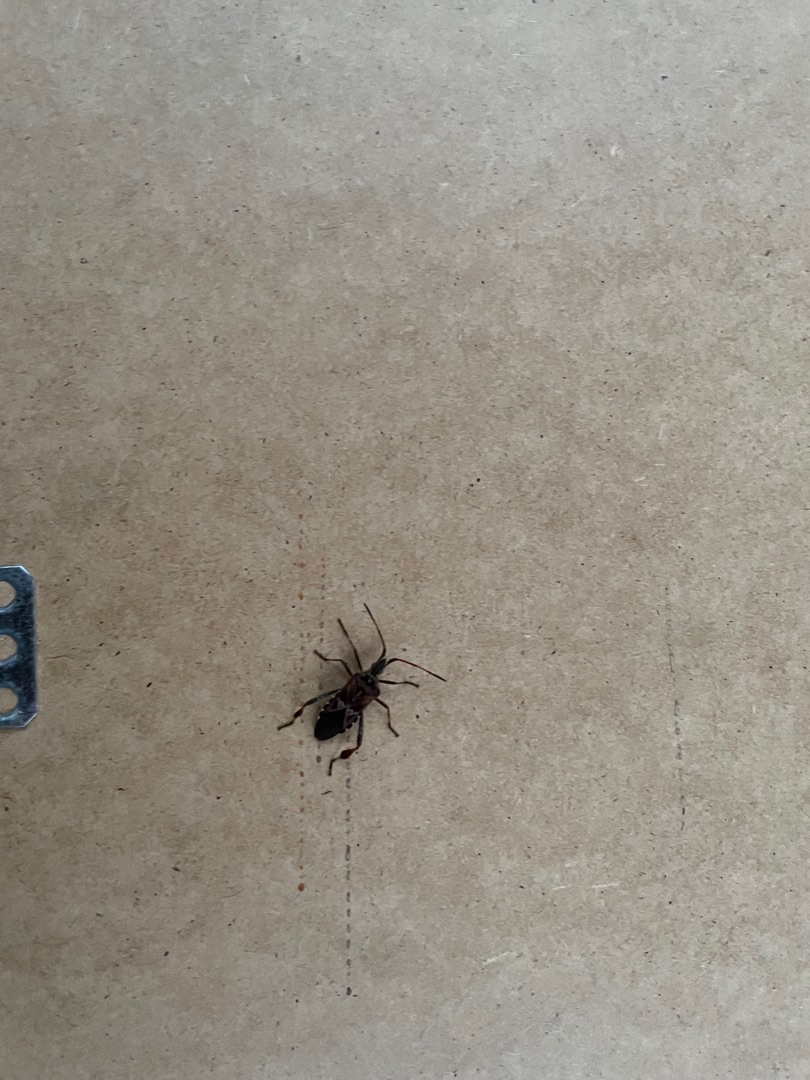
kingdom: Animalia
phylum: Arthropoda
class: Insecta
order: Hemiptera
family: Coreidae
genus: Leptoglossus
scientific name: Leptoglossus occidentalis
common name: Amerikansk fyrretæge
